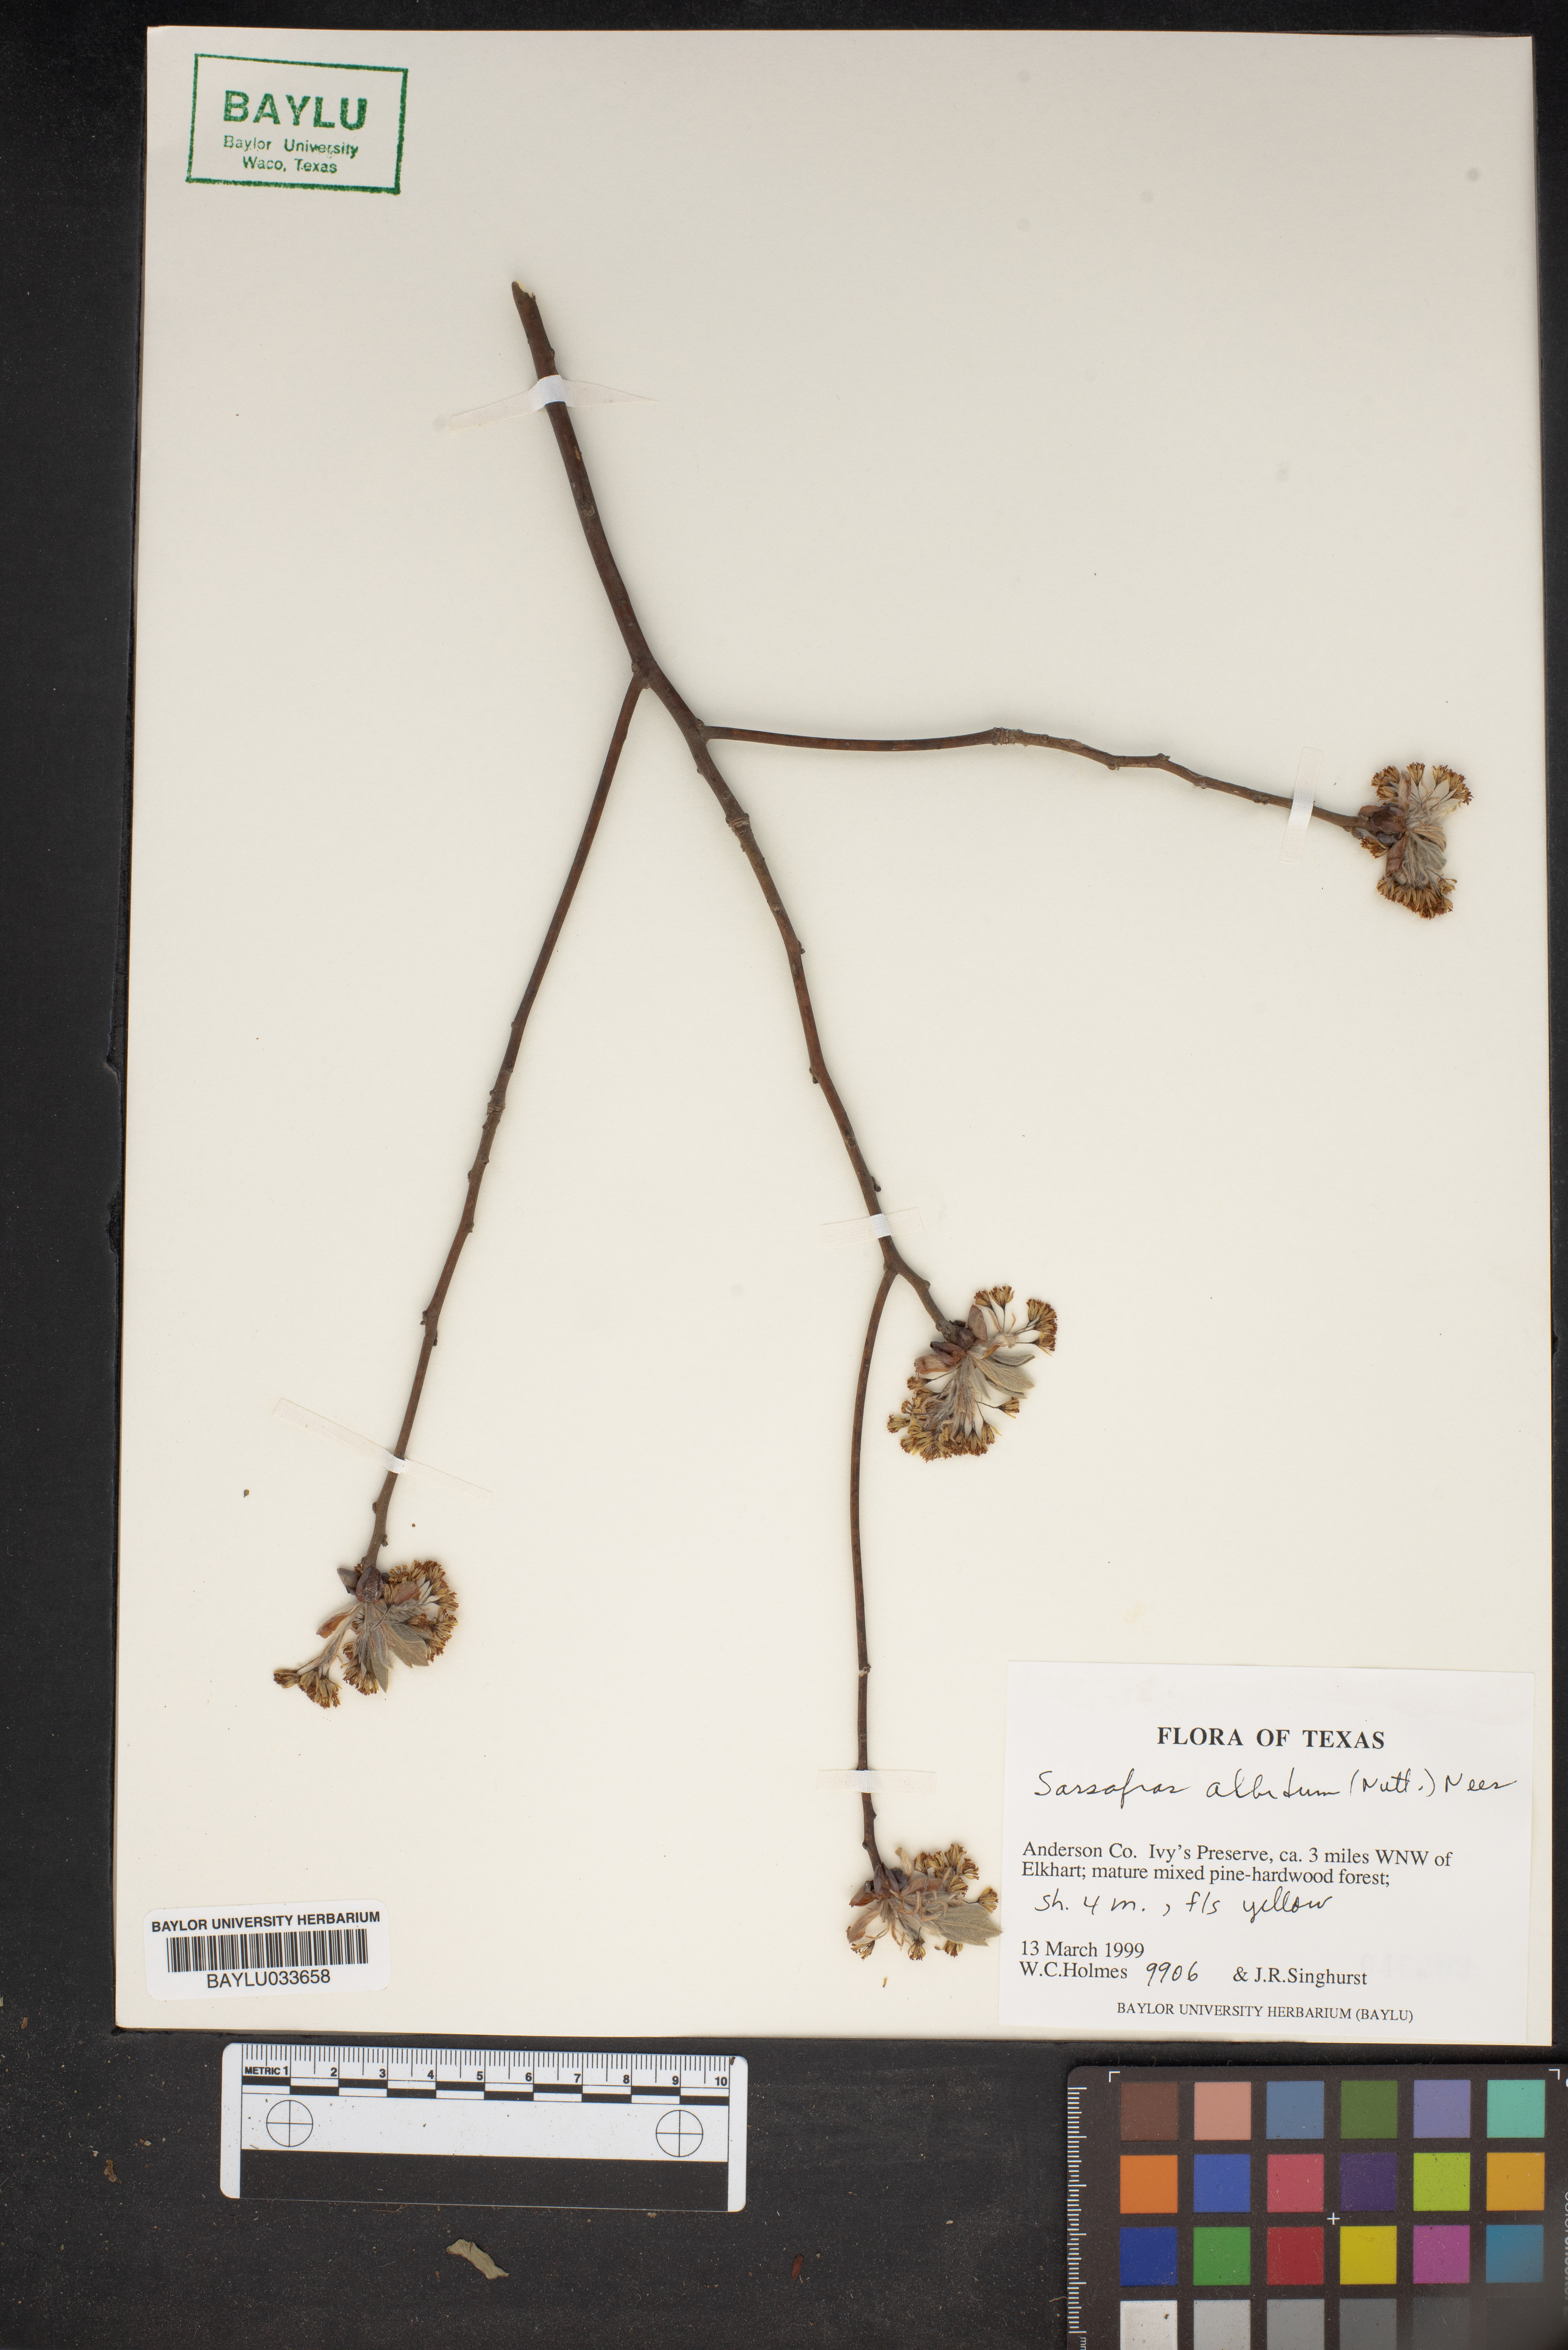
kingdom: Plantae
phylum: Tracheophyta
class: Magnoliopsida
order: Laurales
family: Lauraceae
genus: Sassafras
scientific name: Sassafras albidum
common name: Sassafras
